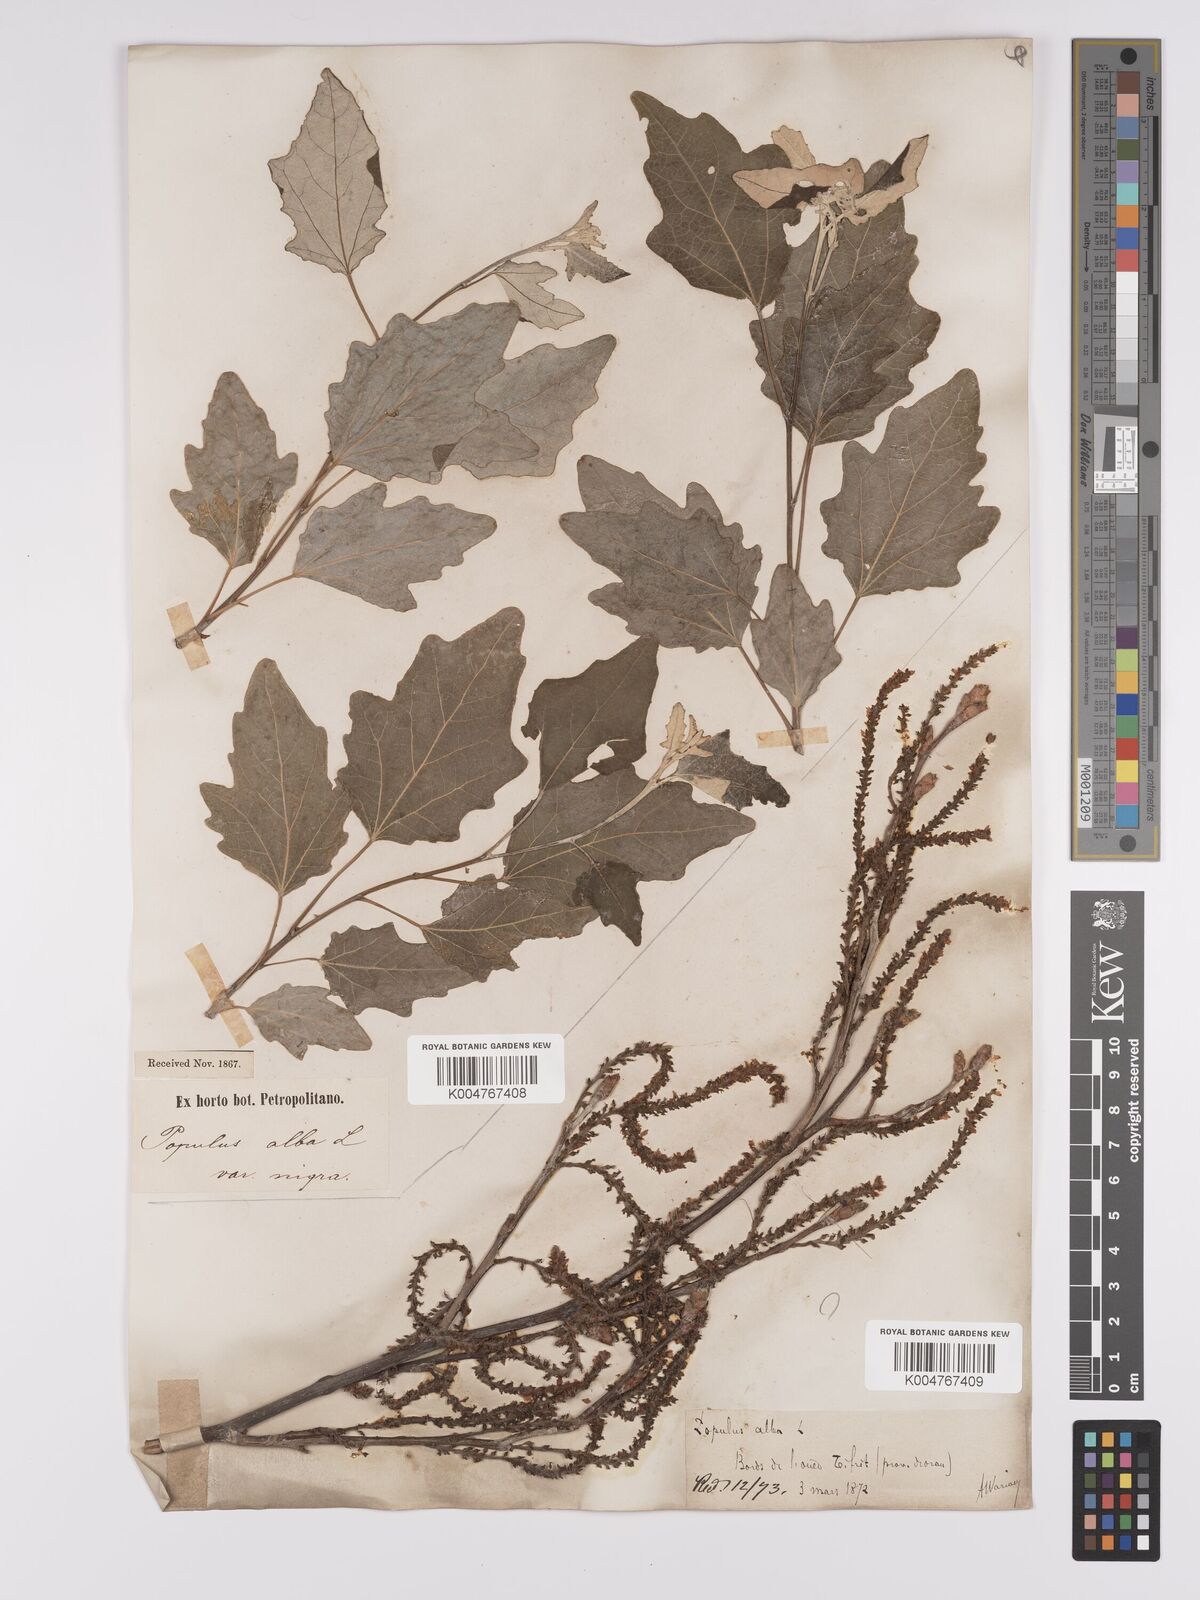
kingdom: Plantae
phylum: Tracheophyta
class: Magnoliopsida
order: Malpighiales
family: Salicaceae
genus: Populus
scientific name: Populus alba
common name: White poplar
